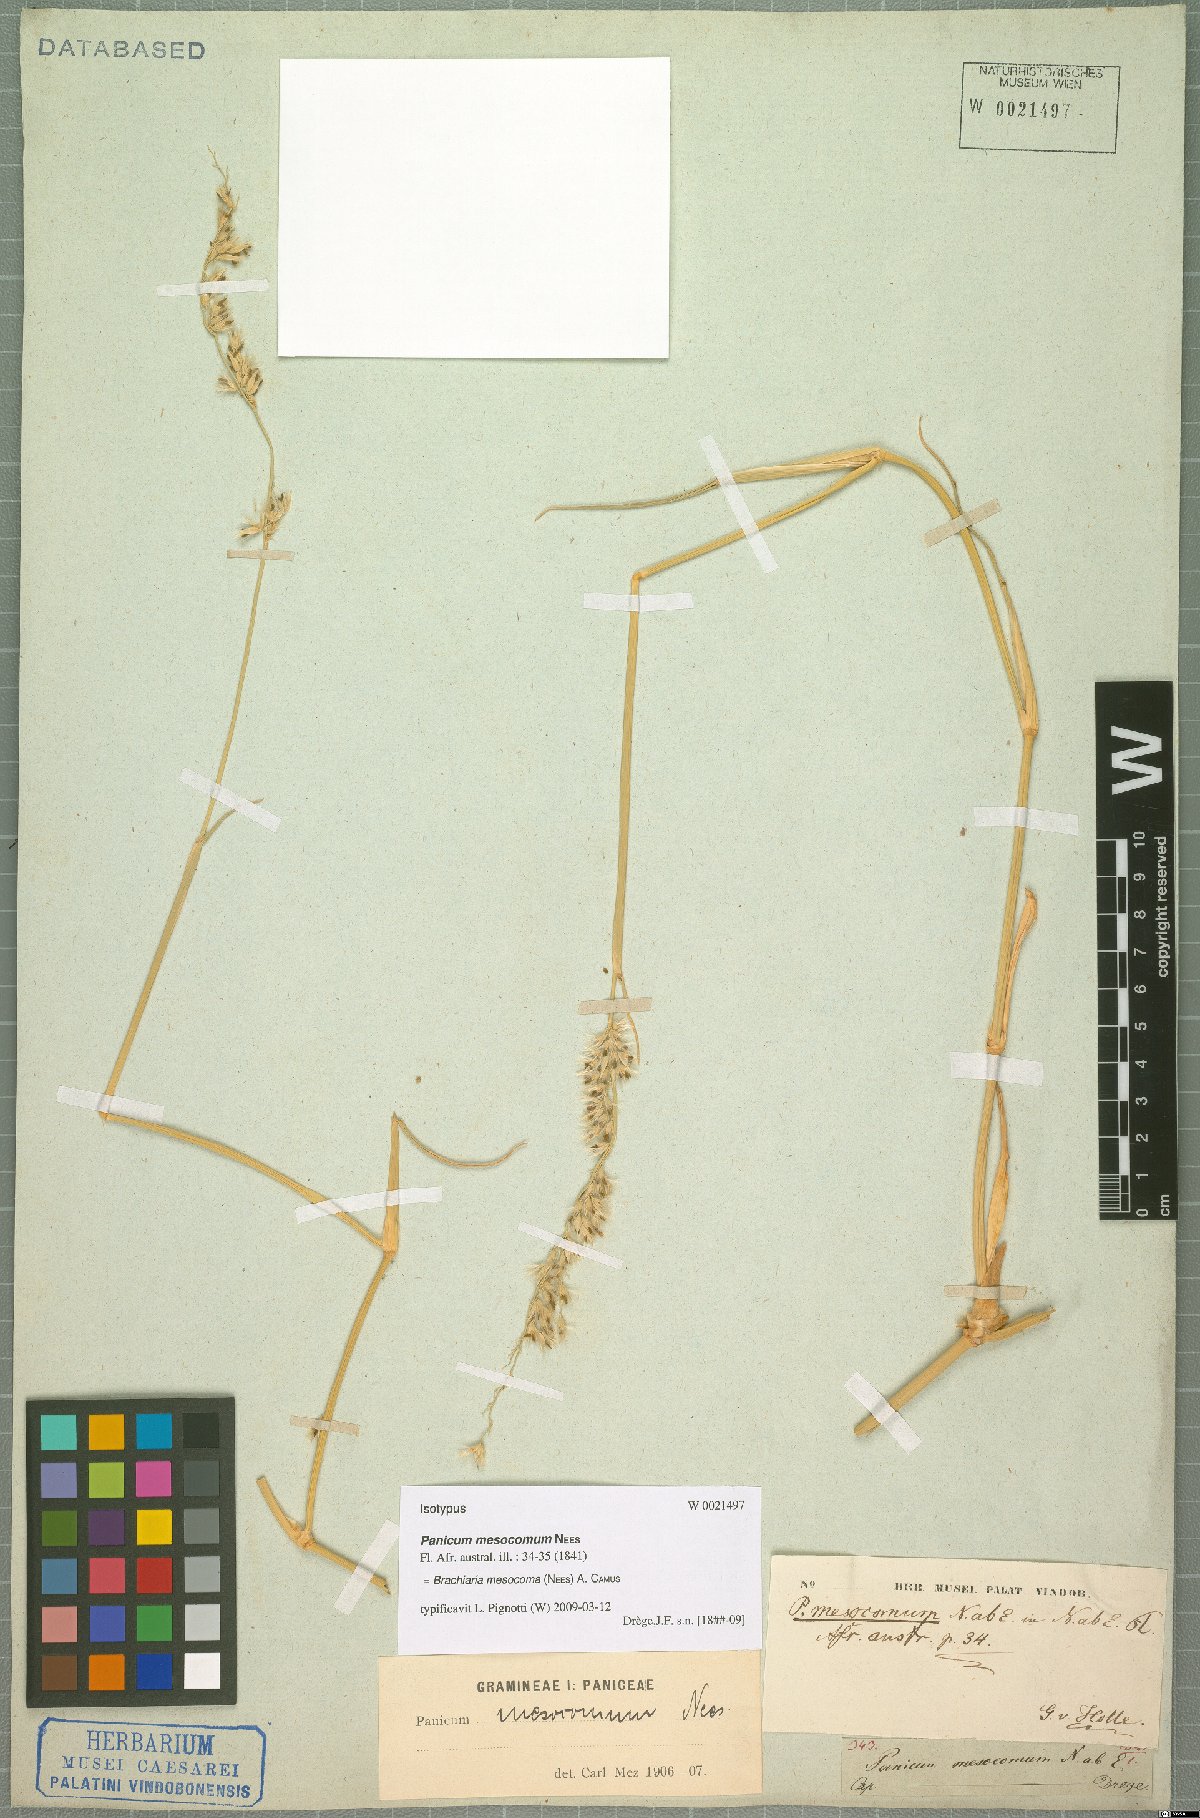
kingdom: Plantae
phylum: Tracheophyta
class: Liliopsida
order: Poales
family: Poaceae
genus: Urochloa
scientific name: Urochloa Brachiaria mesocoma
